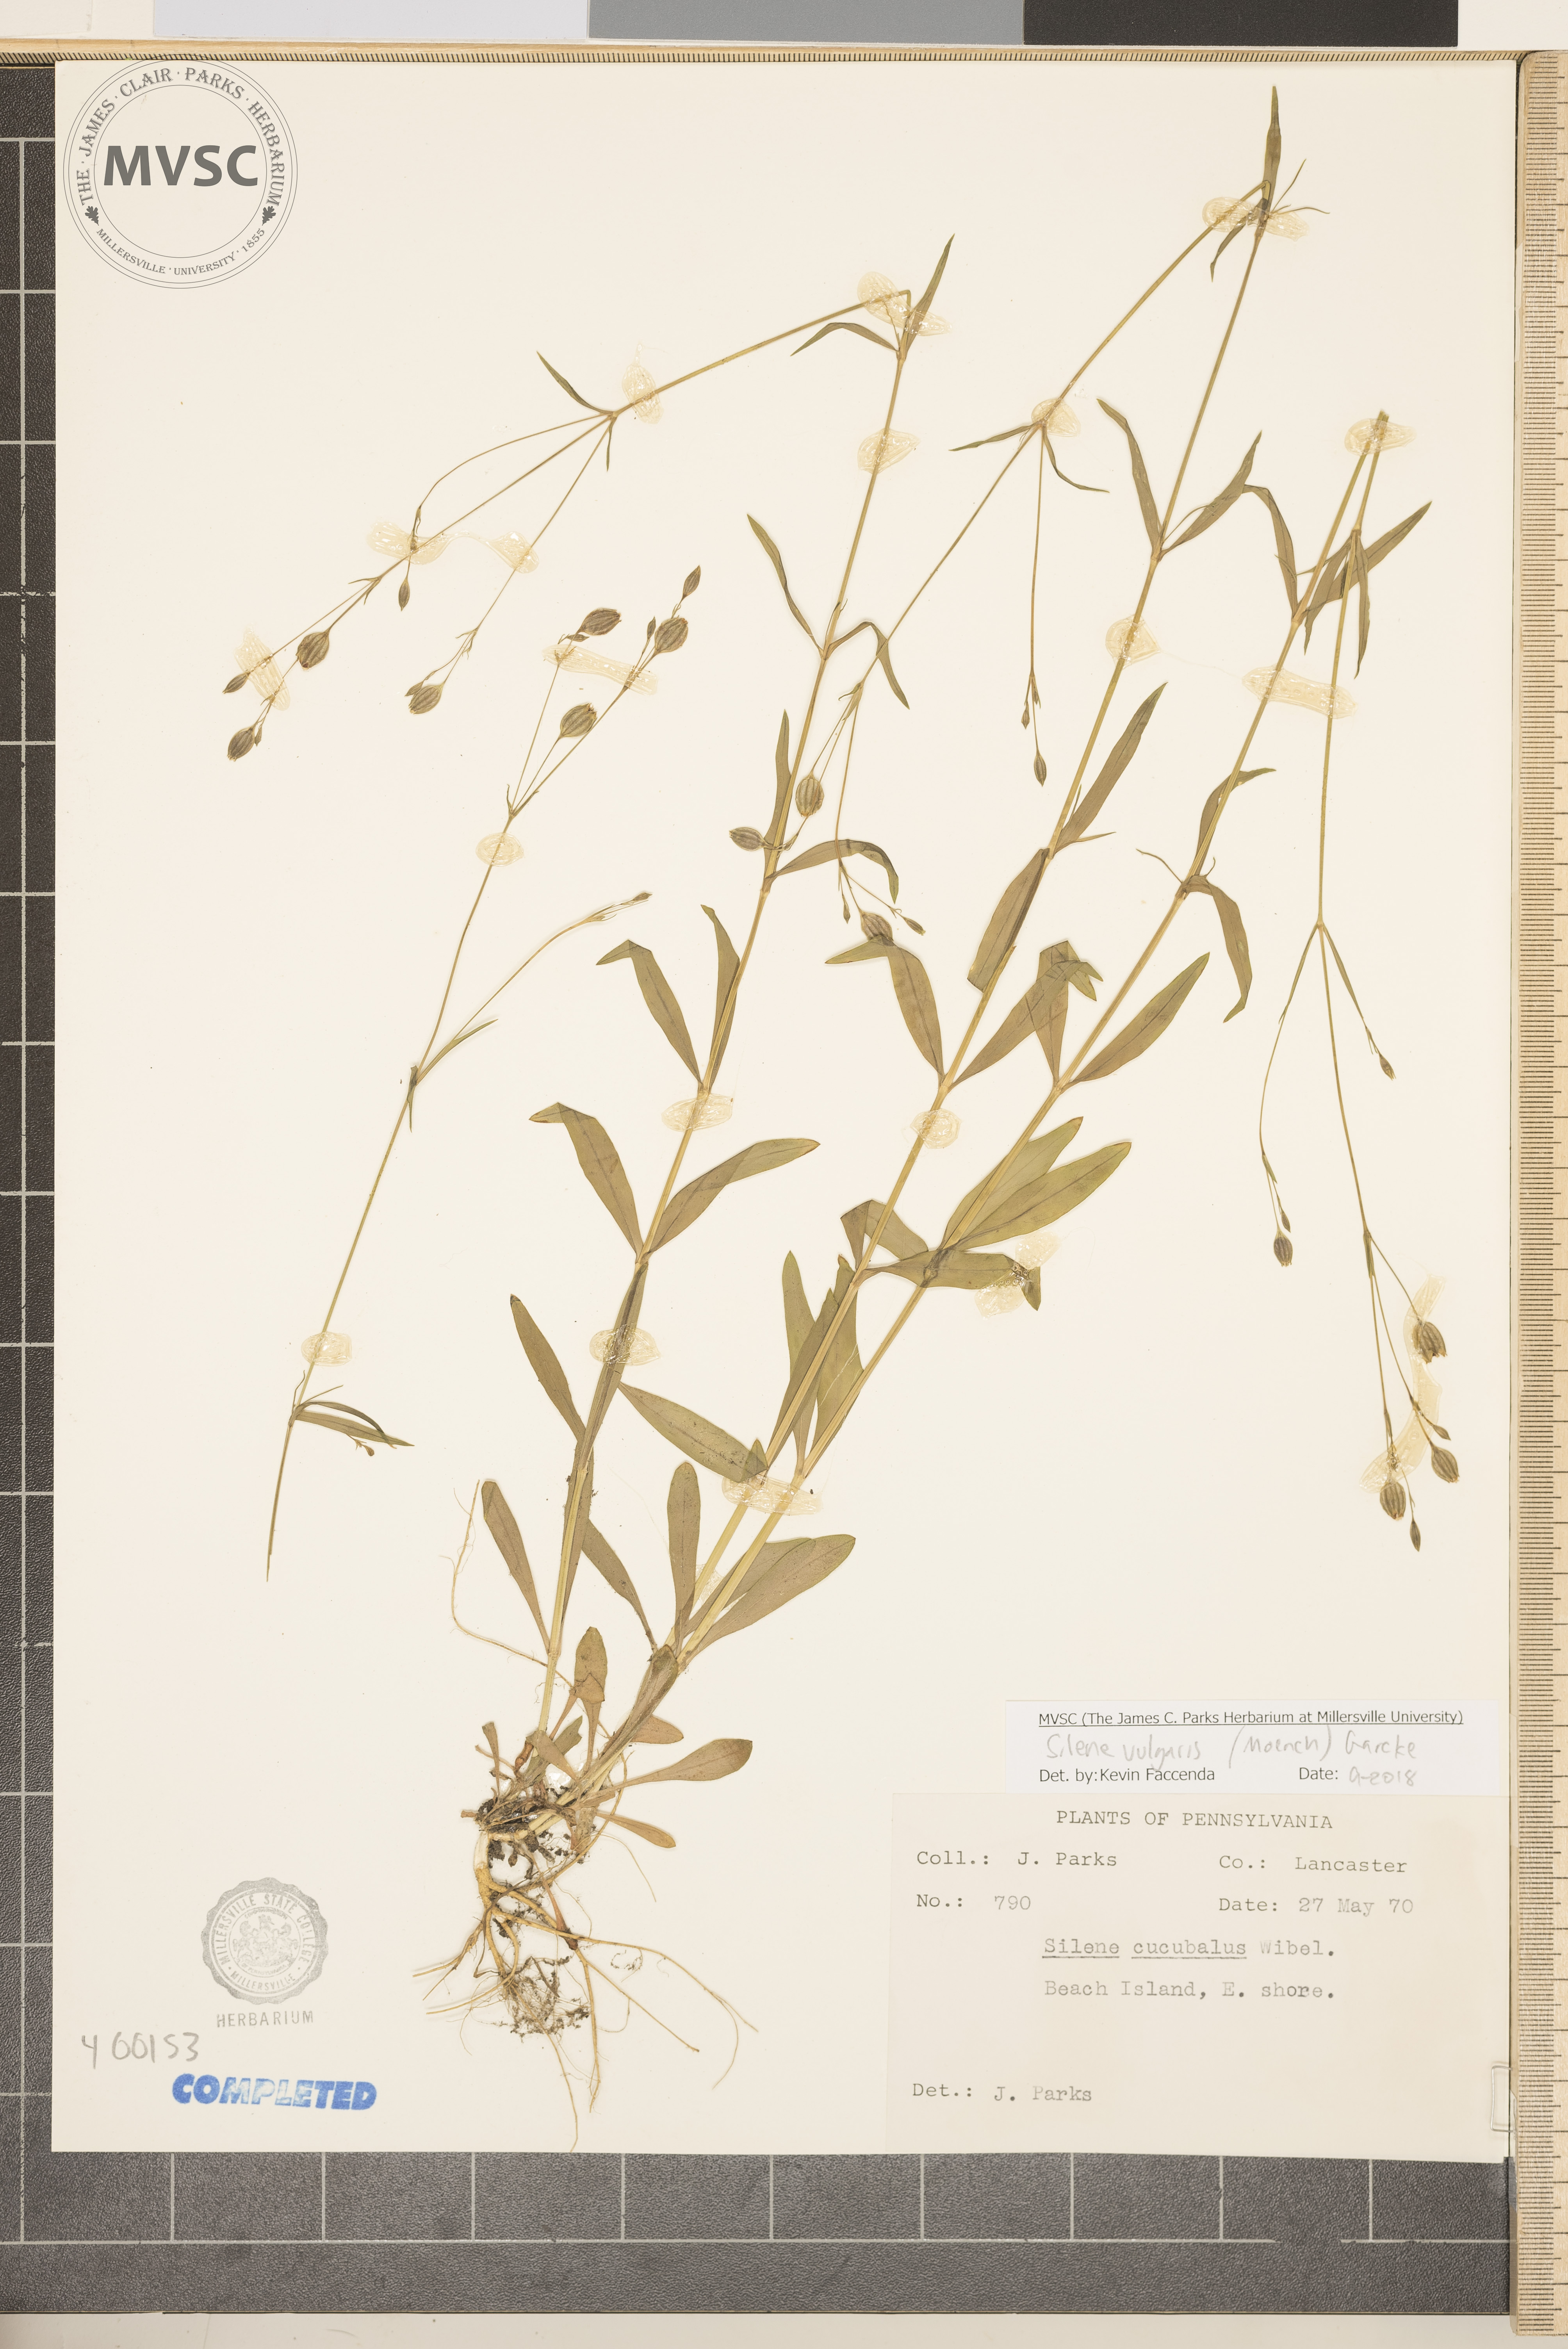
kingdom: Plantae
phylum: Tracheophyta
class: Magnoliopsida
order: Caryophyllales
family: Caryophyllaceae
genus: Silene
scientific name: Silene vulgaris
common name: Bladder campion
